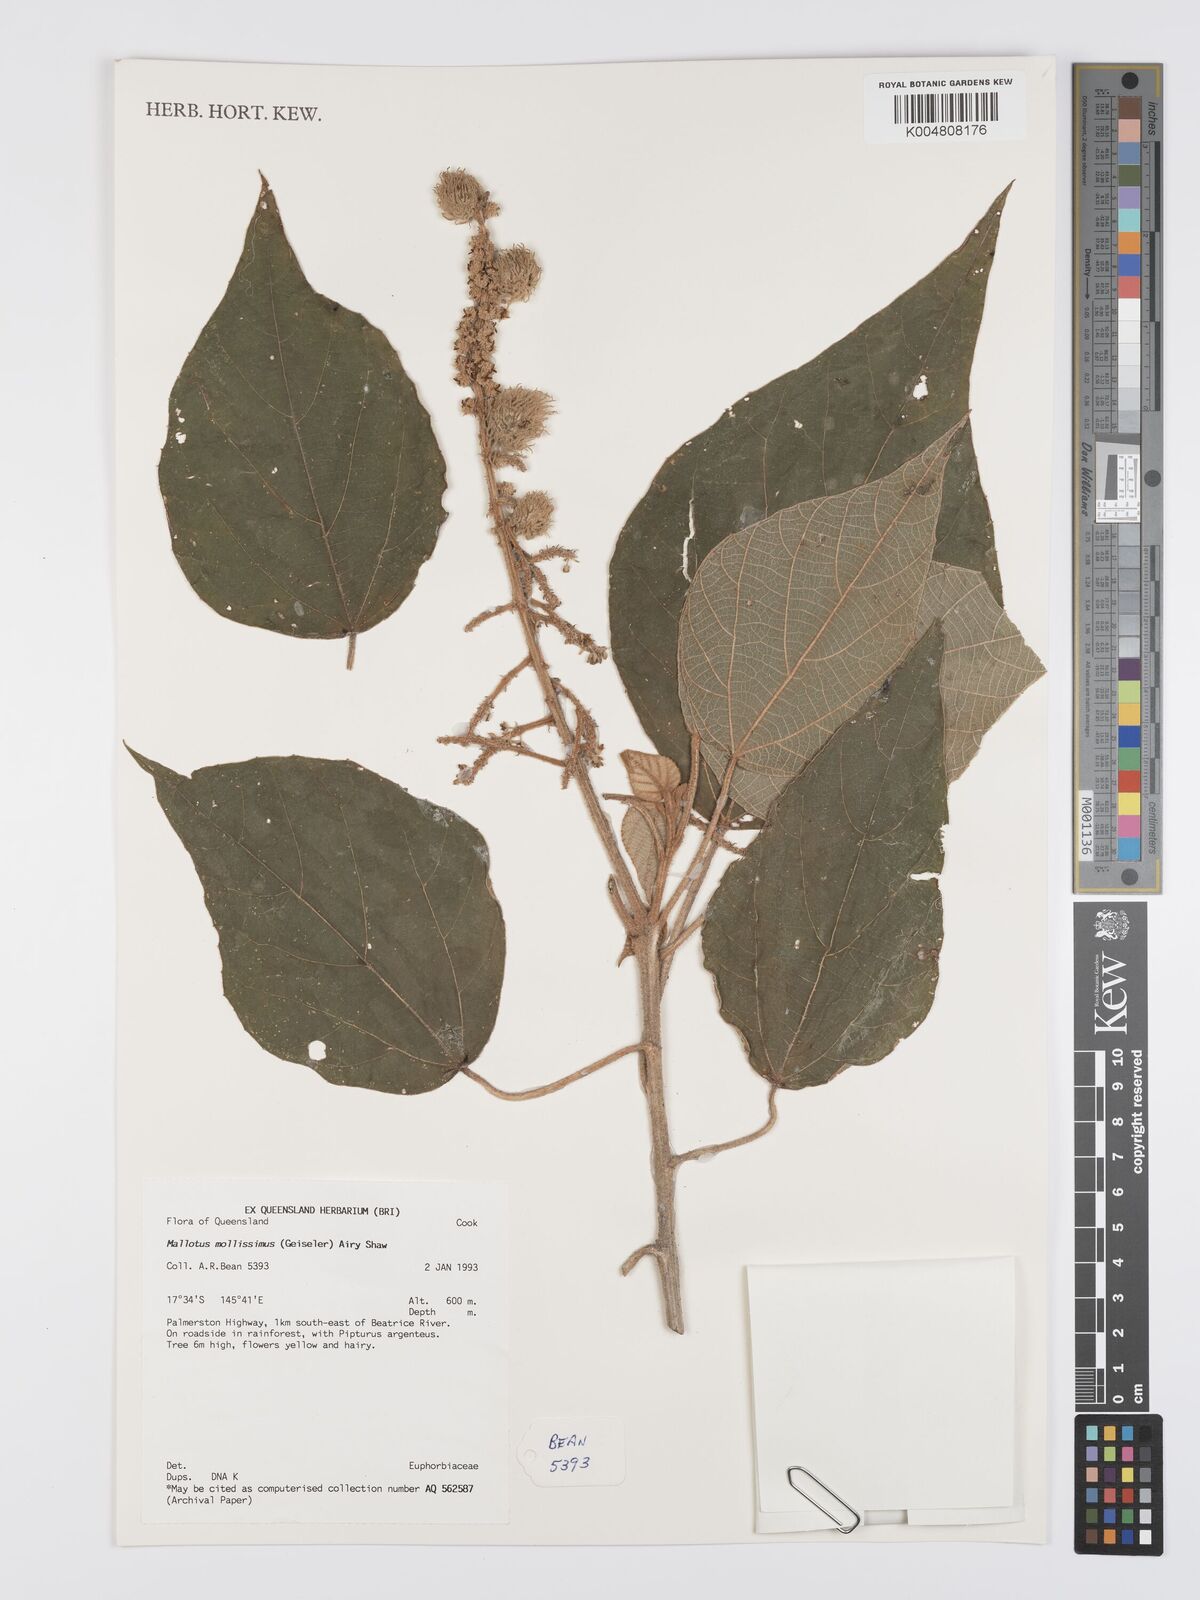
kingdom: Plantae
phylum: Tracheophyta
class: Magnoliopsida
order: Malpighiales
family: Euphorbiaceae
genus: Mallotus
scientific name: Mallotus mollissimus
